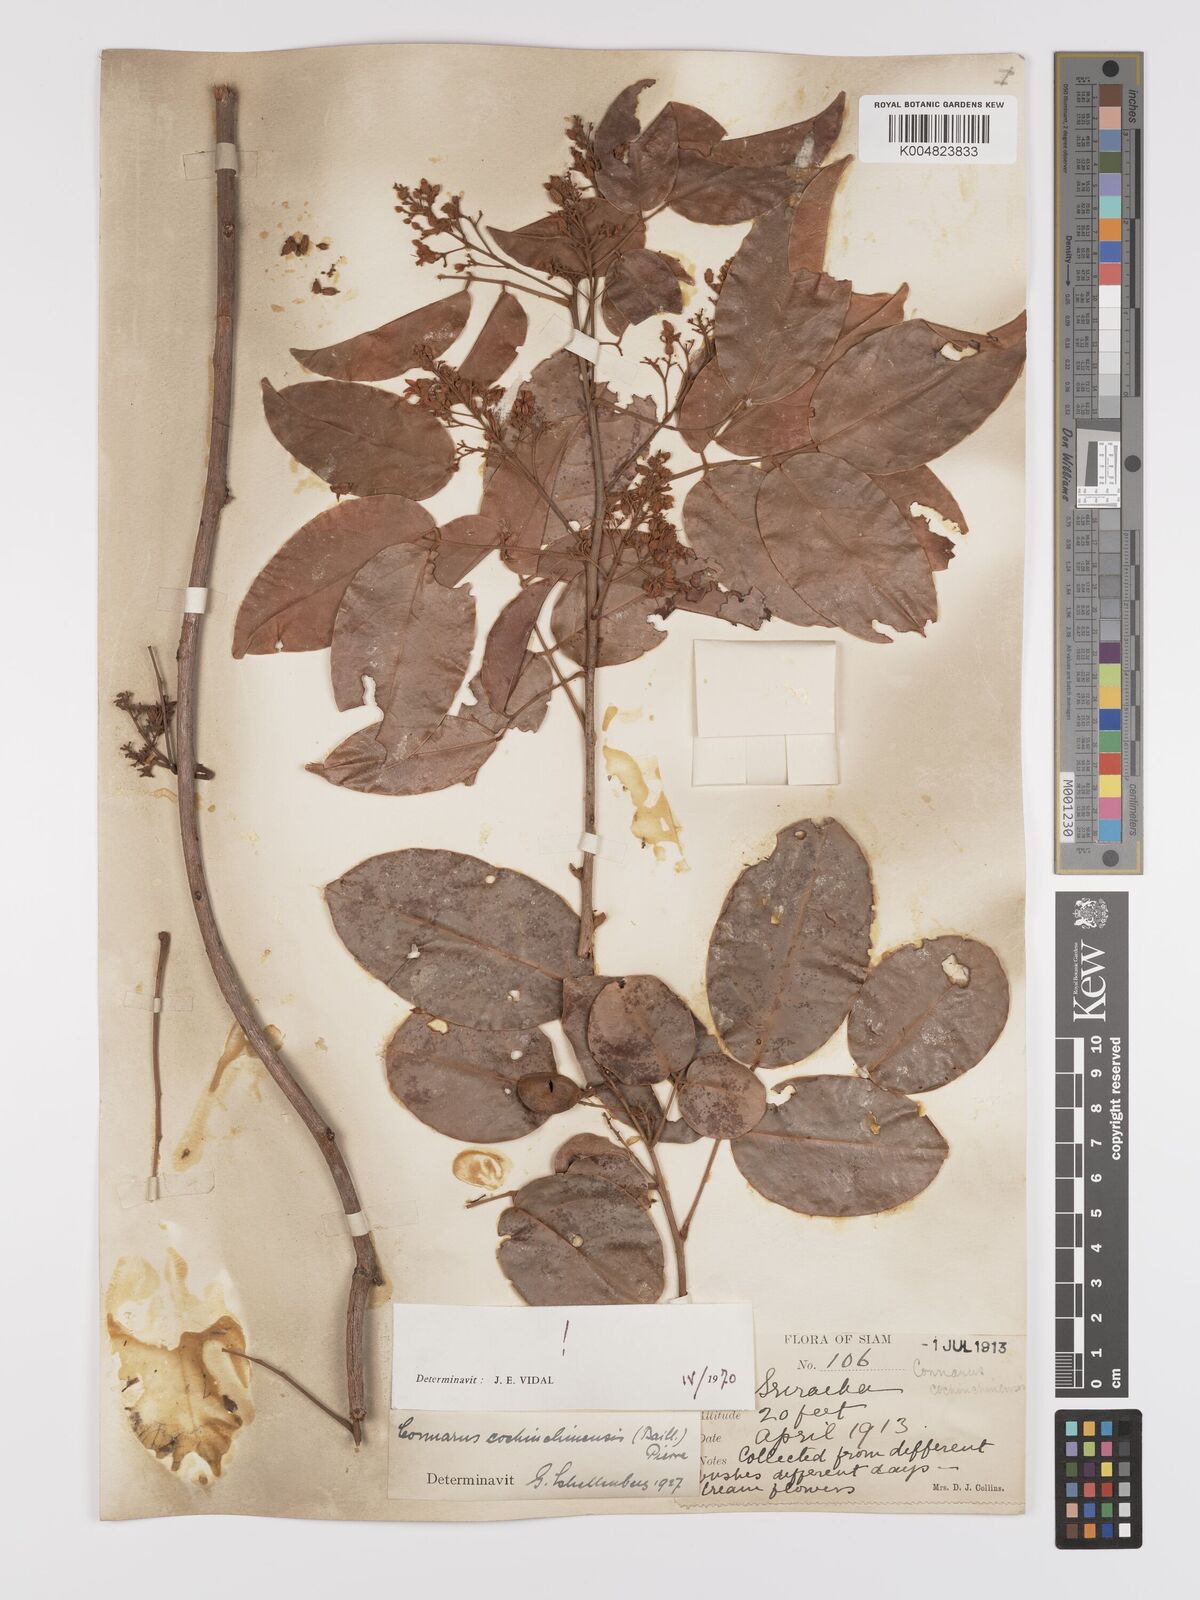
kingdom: Plantae
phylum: Tracheophyta
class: Magnoliopsida
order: Oxalidales
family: Connaraceae
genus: Connarus
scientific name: Connarus cochinchinensis
